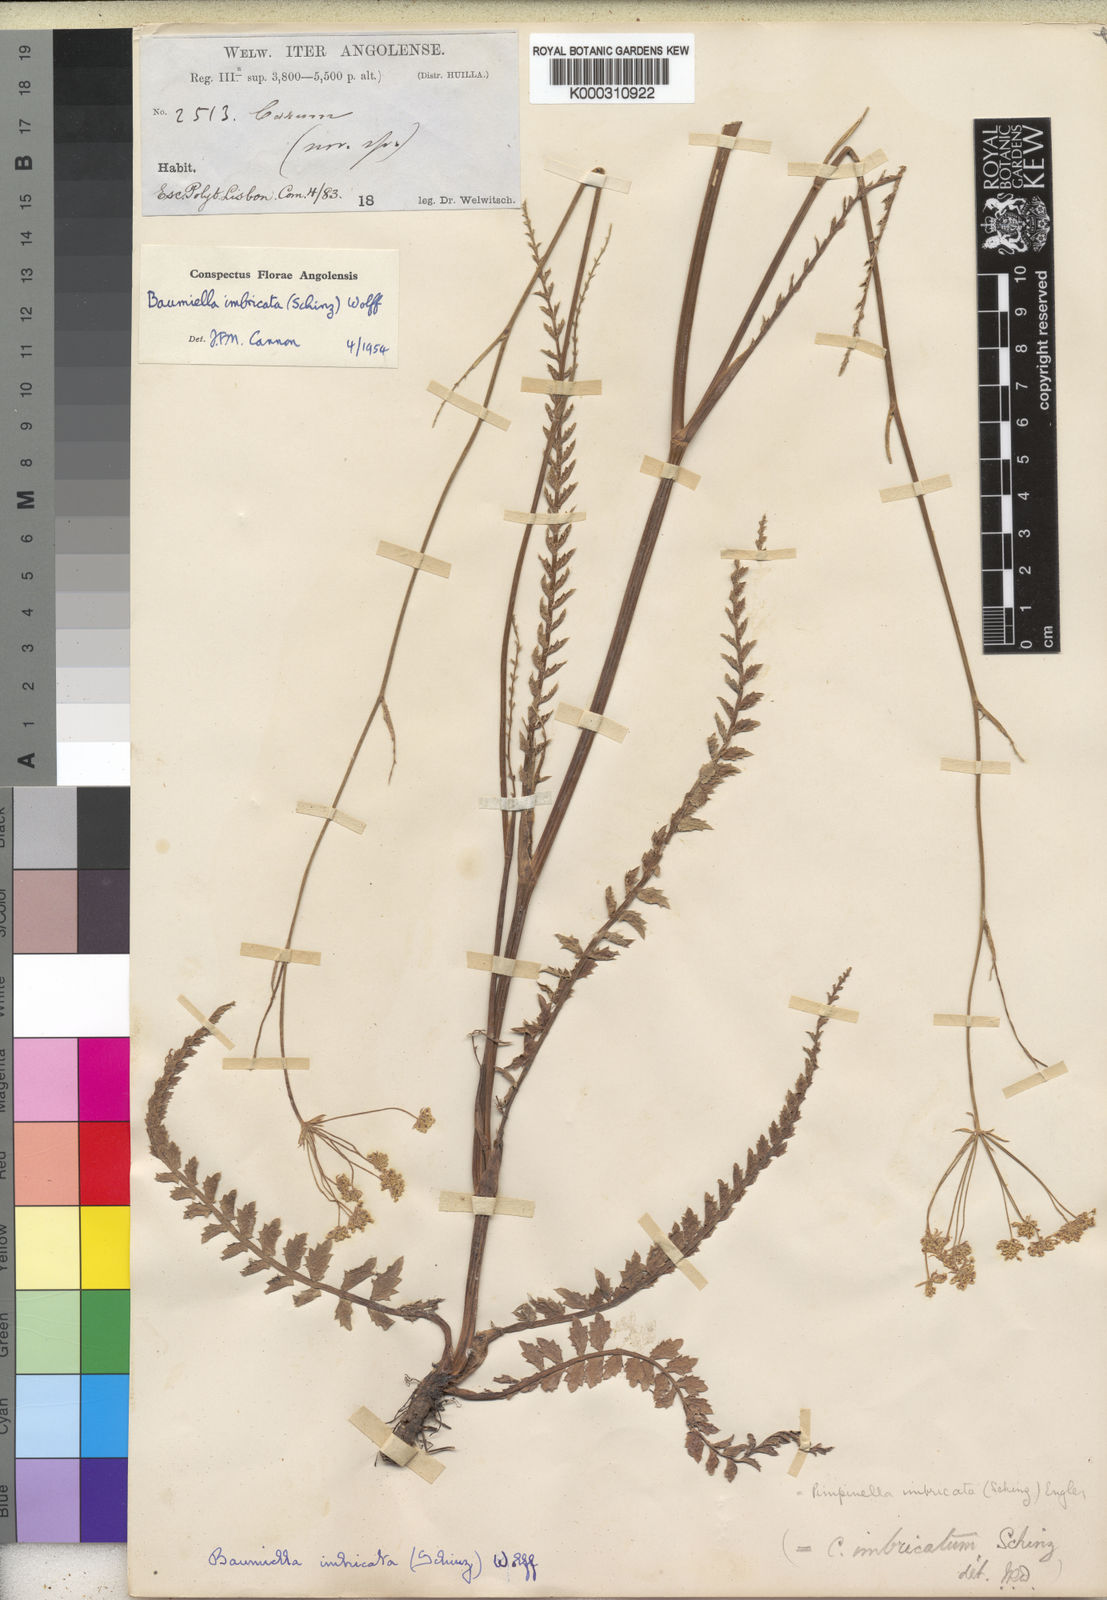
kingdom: Plantae
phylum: Tracheophyta
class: Magnoliopsida
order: Apiales
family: Apiaceae
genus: Trachyspermum
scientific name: Trachyspermum pimpinelloides
